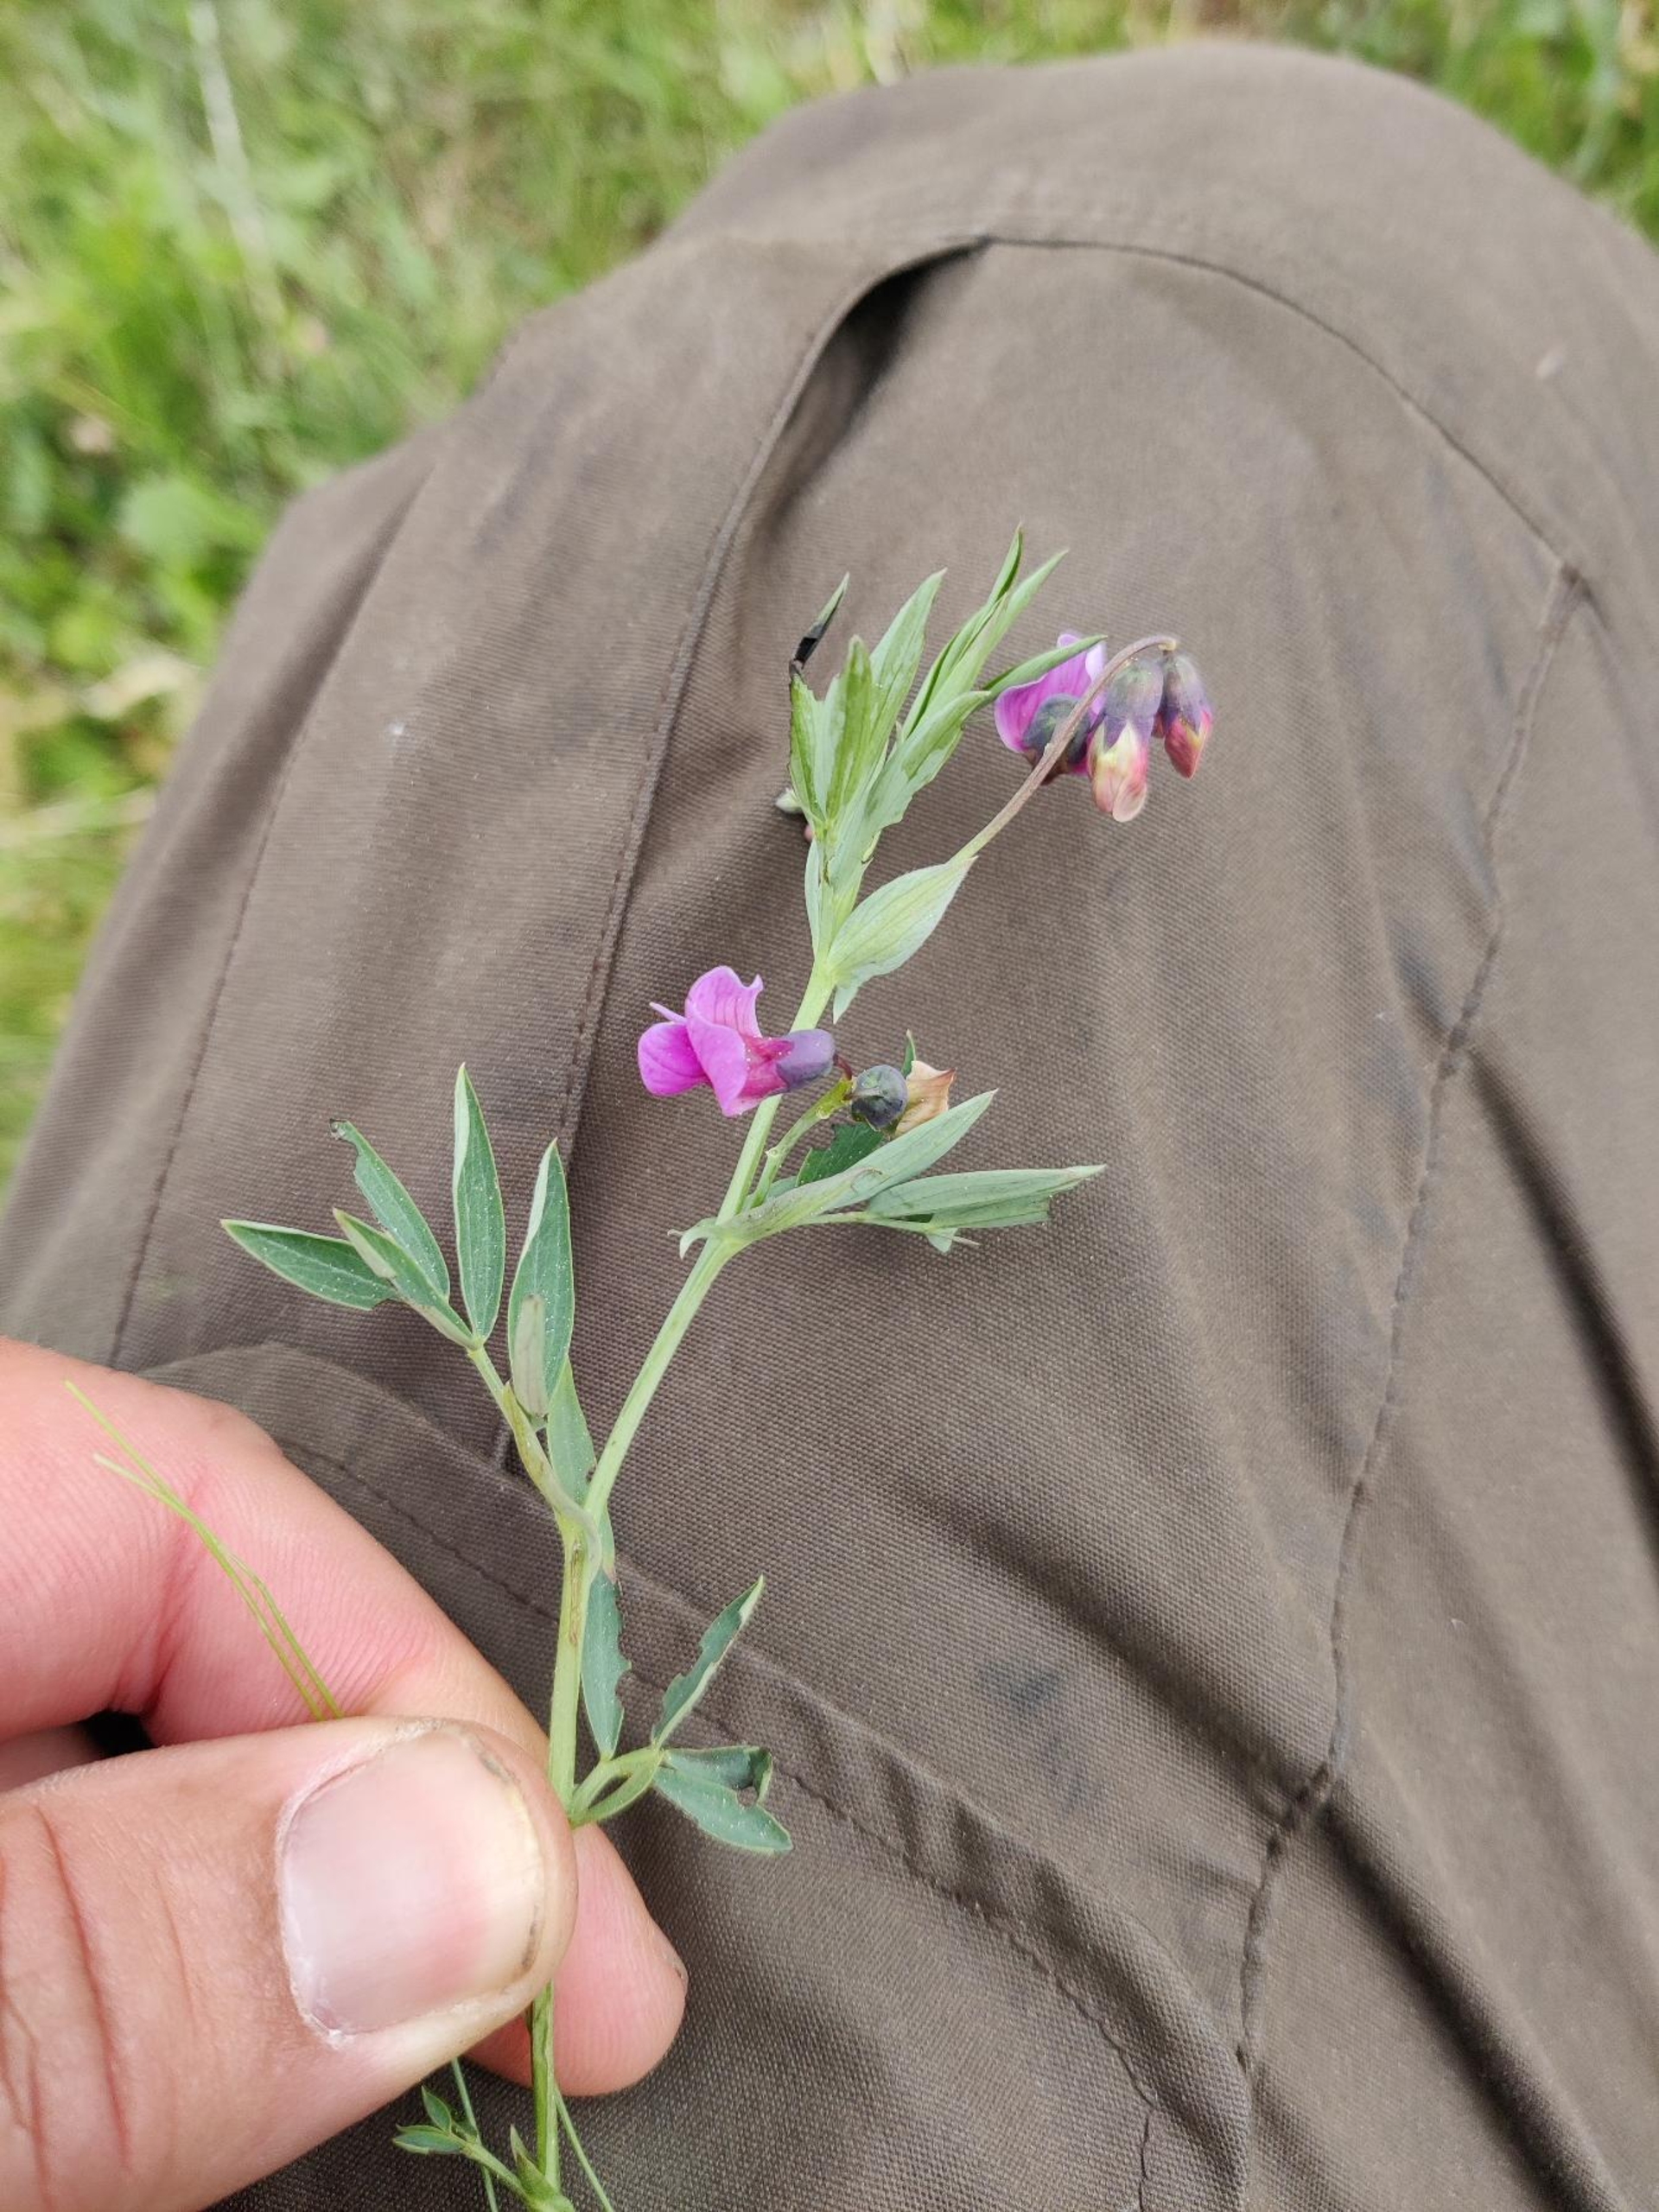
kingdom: Plantae
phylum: Tracheophyta
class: Magnoliopsida
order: Fabales
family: Fabaceae
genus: Lathyrus
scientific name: Lathyrus linifolius
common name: Krat-fladbælg
